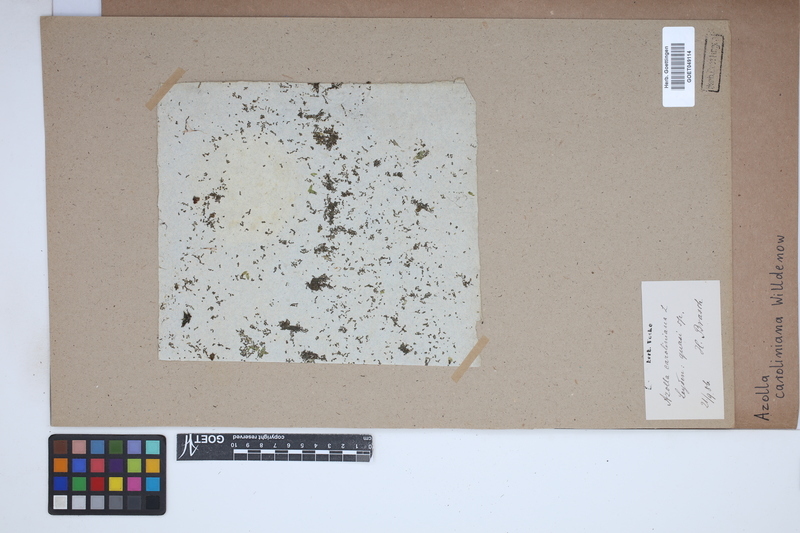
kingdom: Plantae
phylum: Tracheophyta
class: Polypodiopsida
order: Salviniales
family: Salviniaceae
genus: Azolla
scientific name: Azolla caroliniana
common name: Carolina mosquitofern
